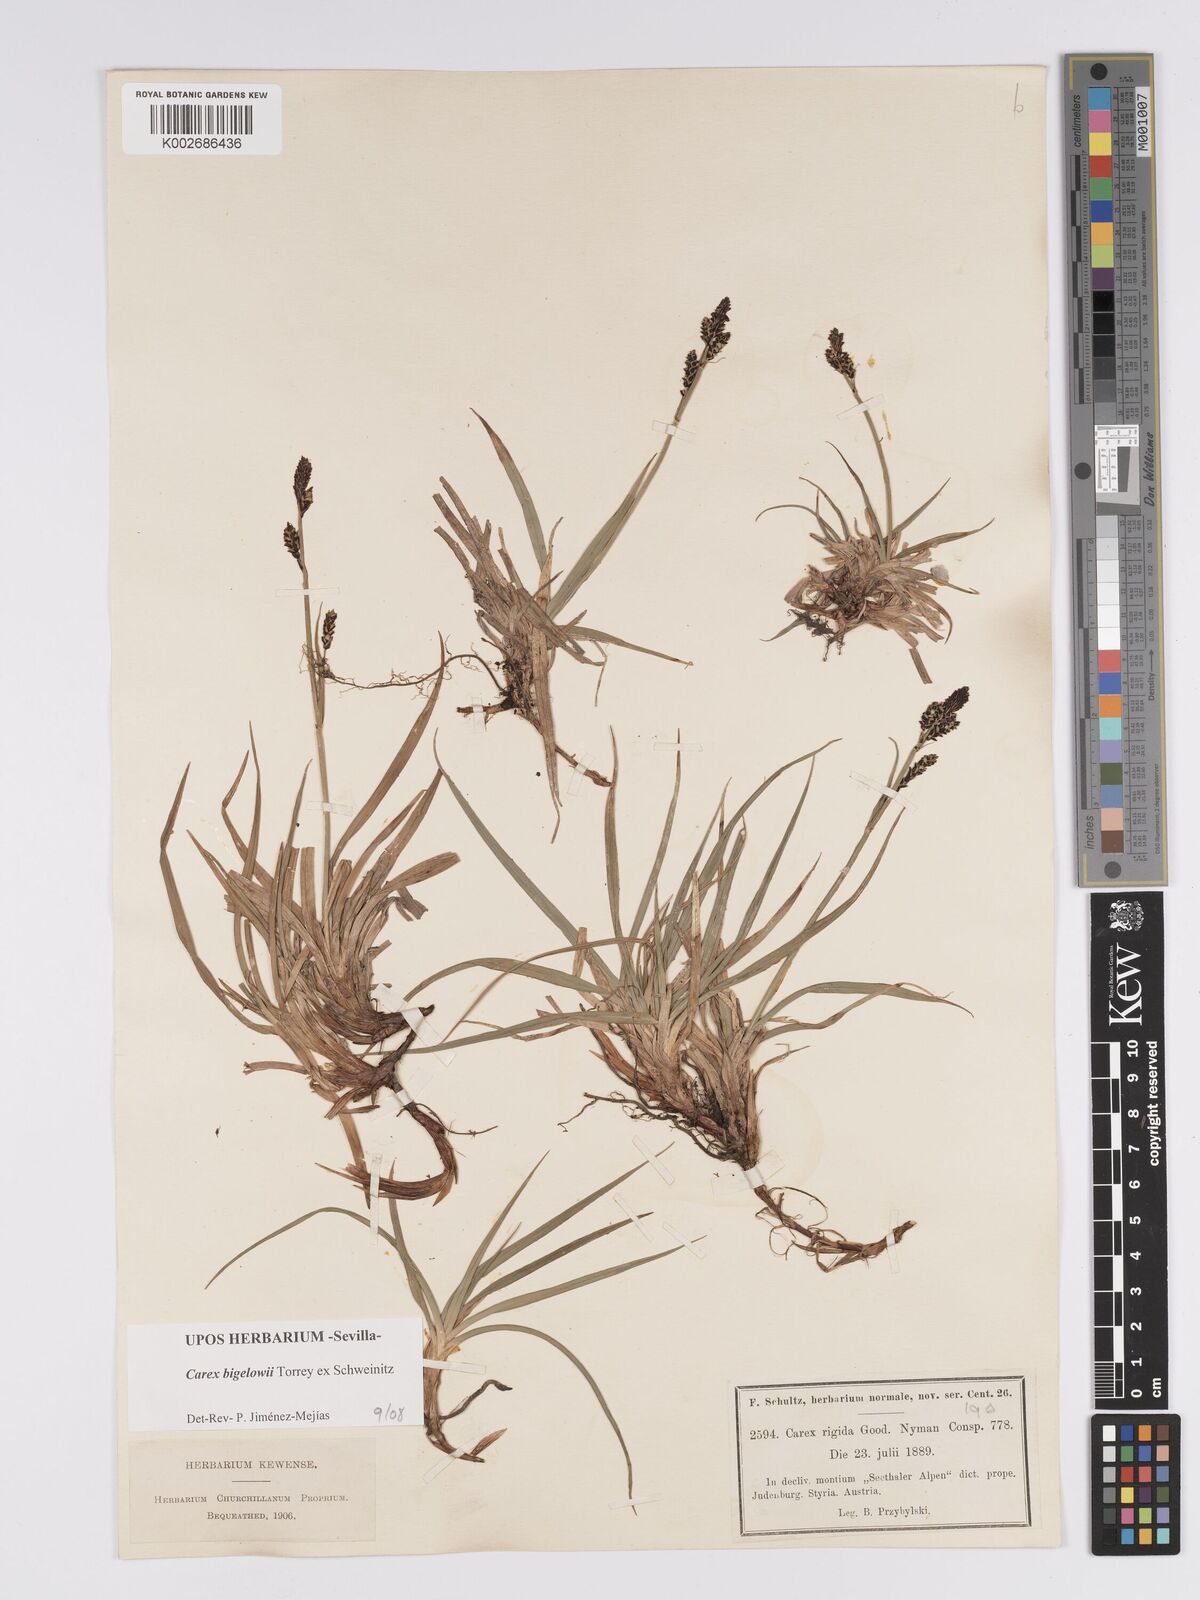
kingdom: Plantae
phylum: Tracheophyta
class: Liliopsida
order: Poales
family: Cyperaceae
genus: Carex
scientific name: Carex bigelowii
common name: Stiff sedge
